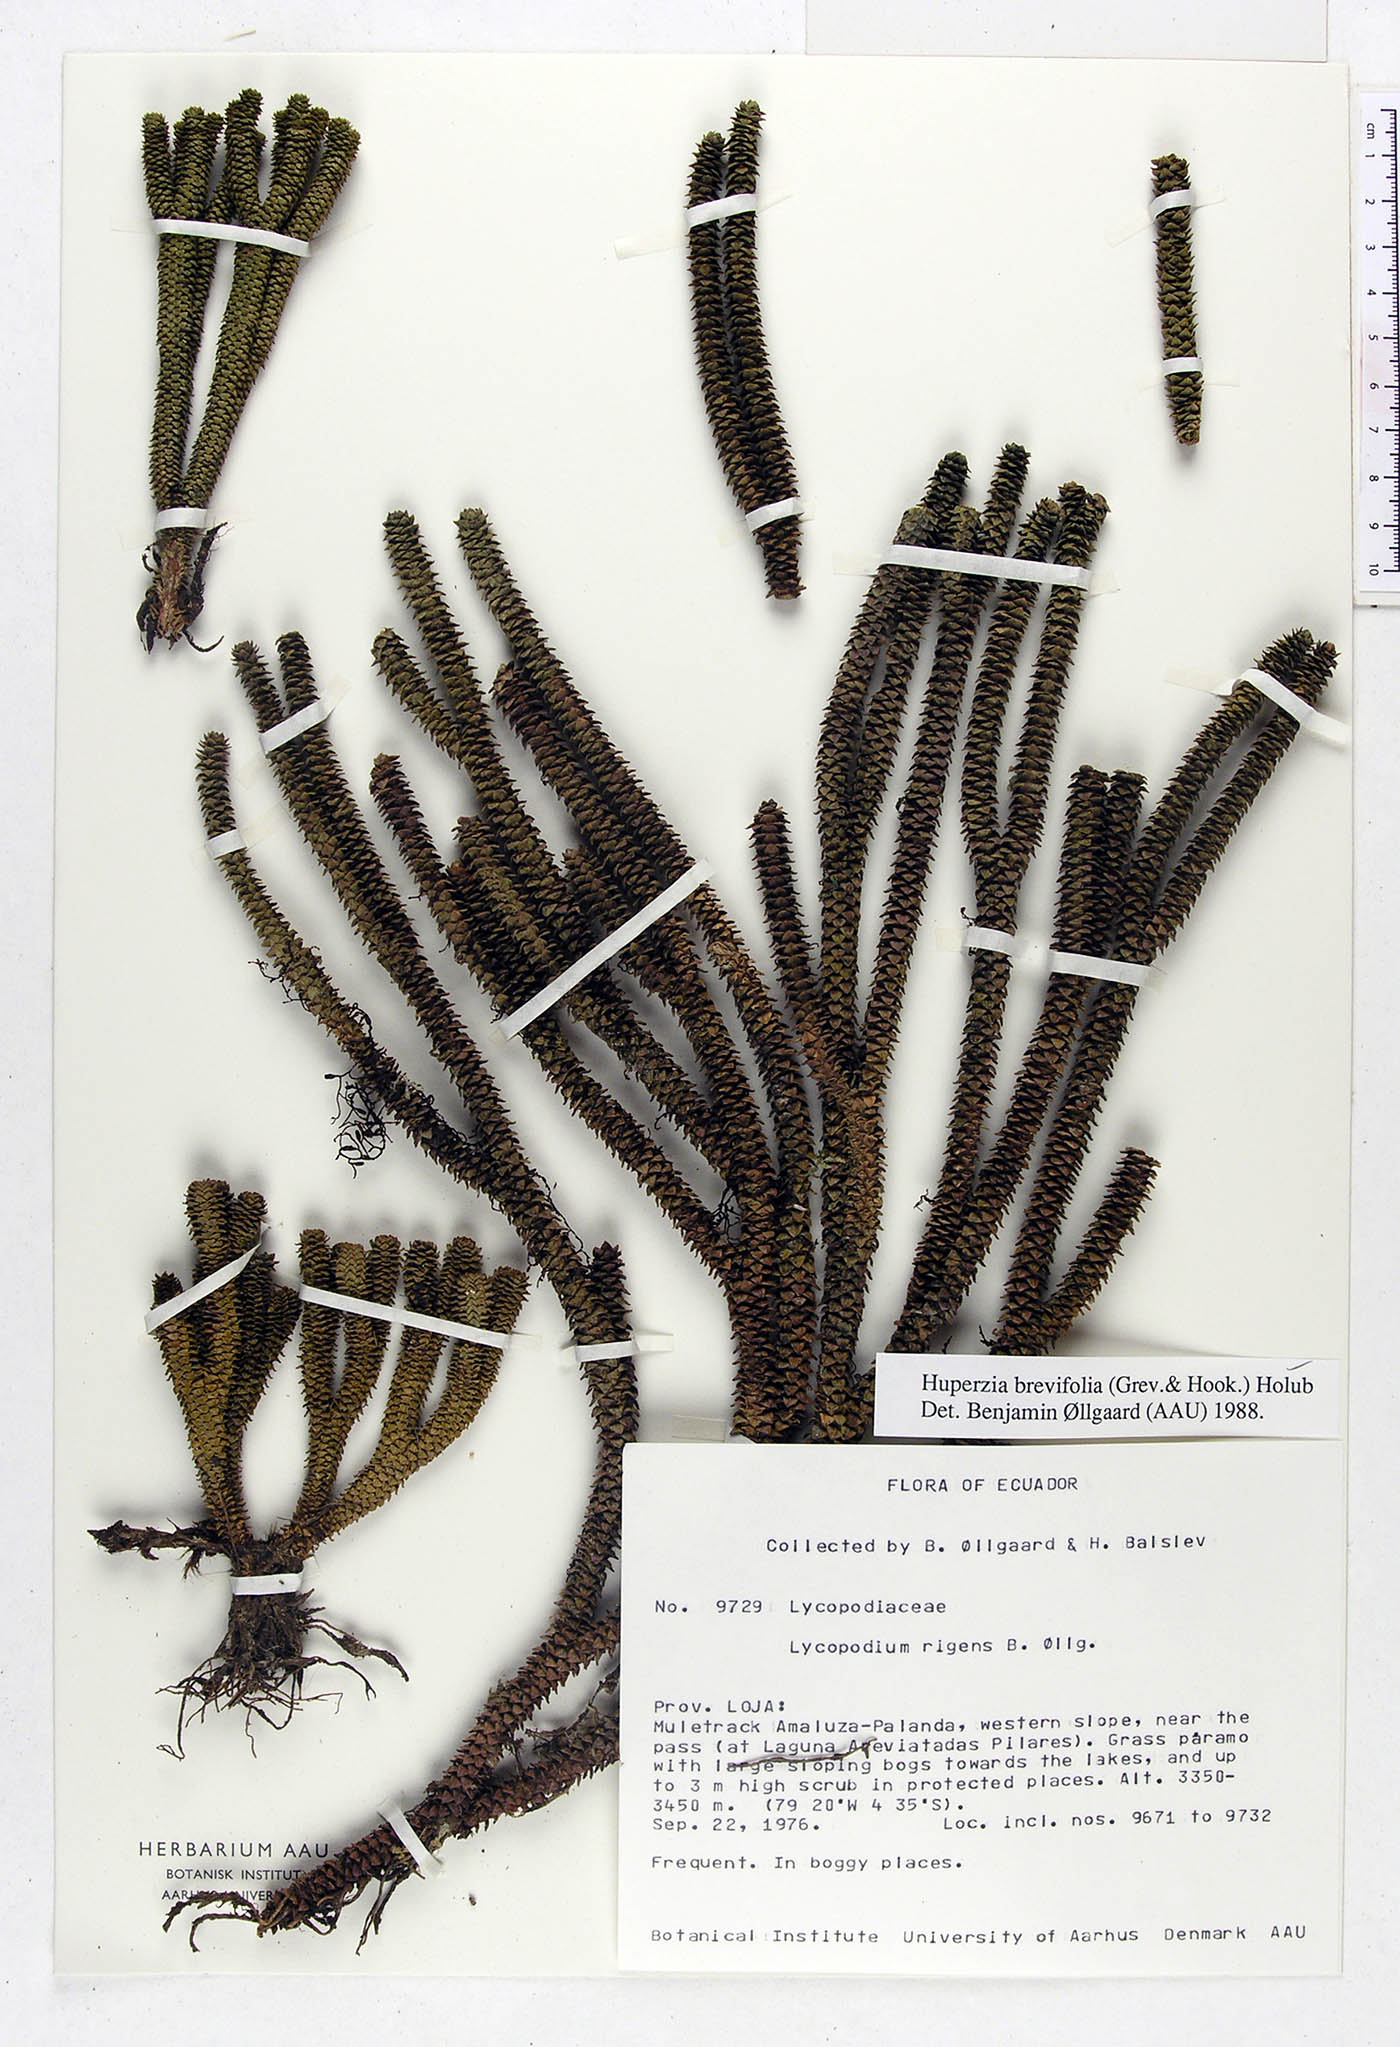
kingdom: Plantae
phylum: Tracheophyta
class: Lycopodiopsida
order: Lycopodiales
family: Lycopodiaceae
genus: Phlegmariurus
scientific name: Phlegmariurus brevifolius
